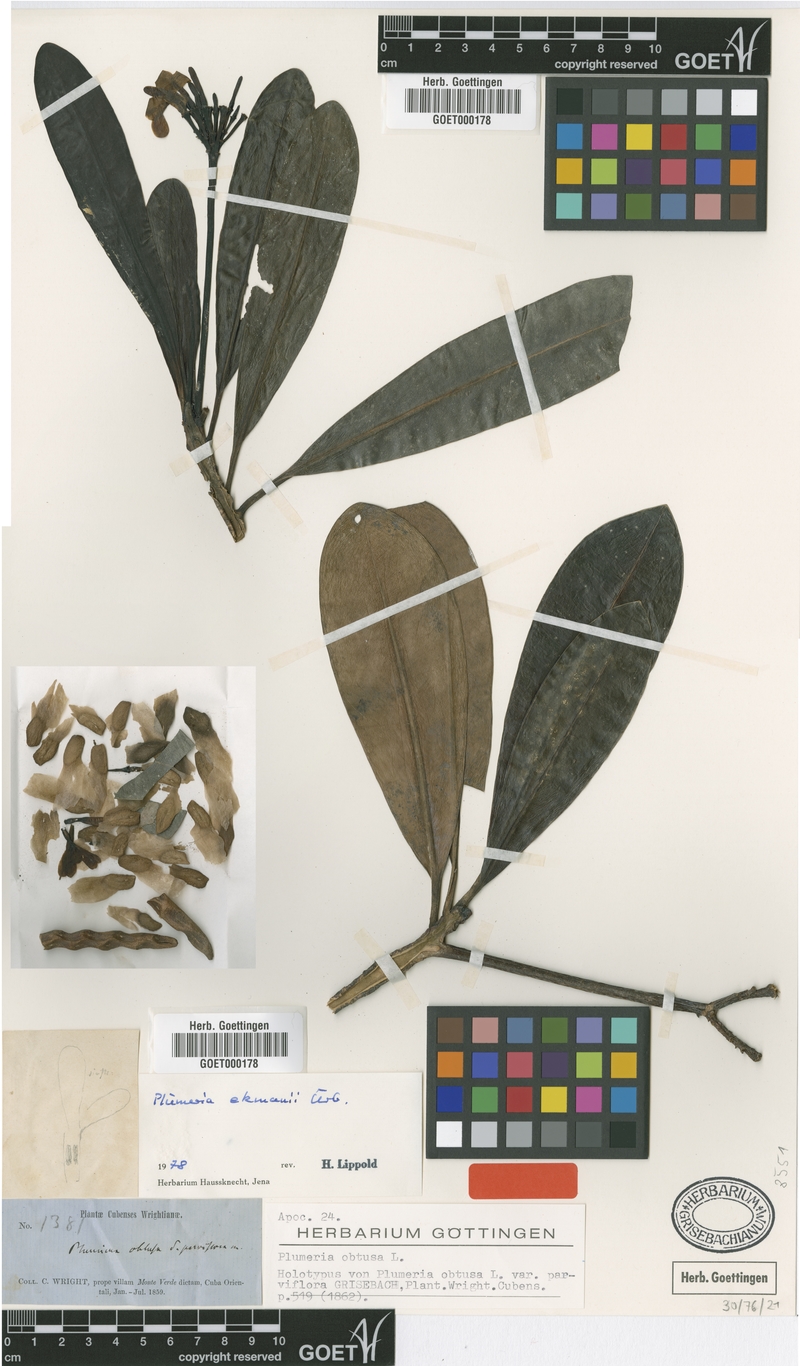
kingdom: Plantae
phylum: Tracheophyta
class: Magnoliopsida
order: Gentianales
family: Apocynaceae
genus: Plumeria
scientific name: Plumeria ekmanii
